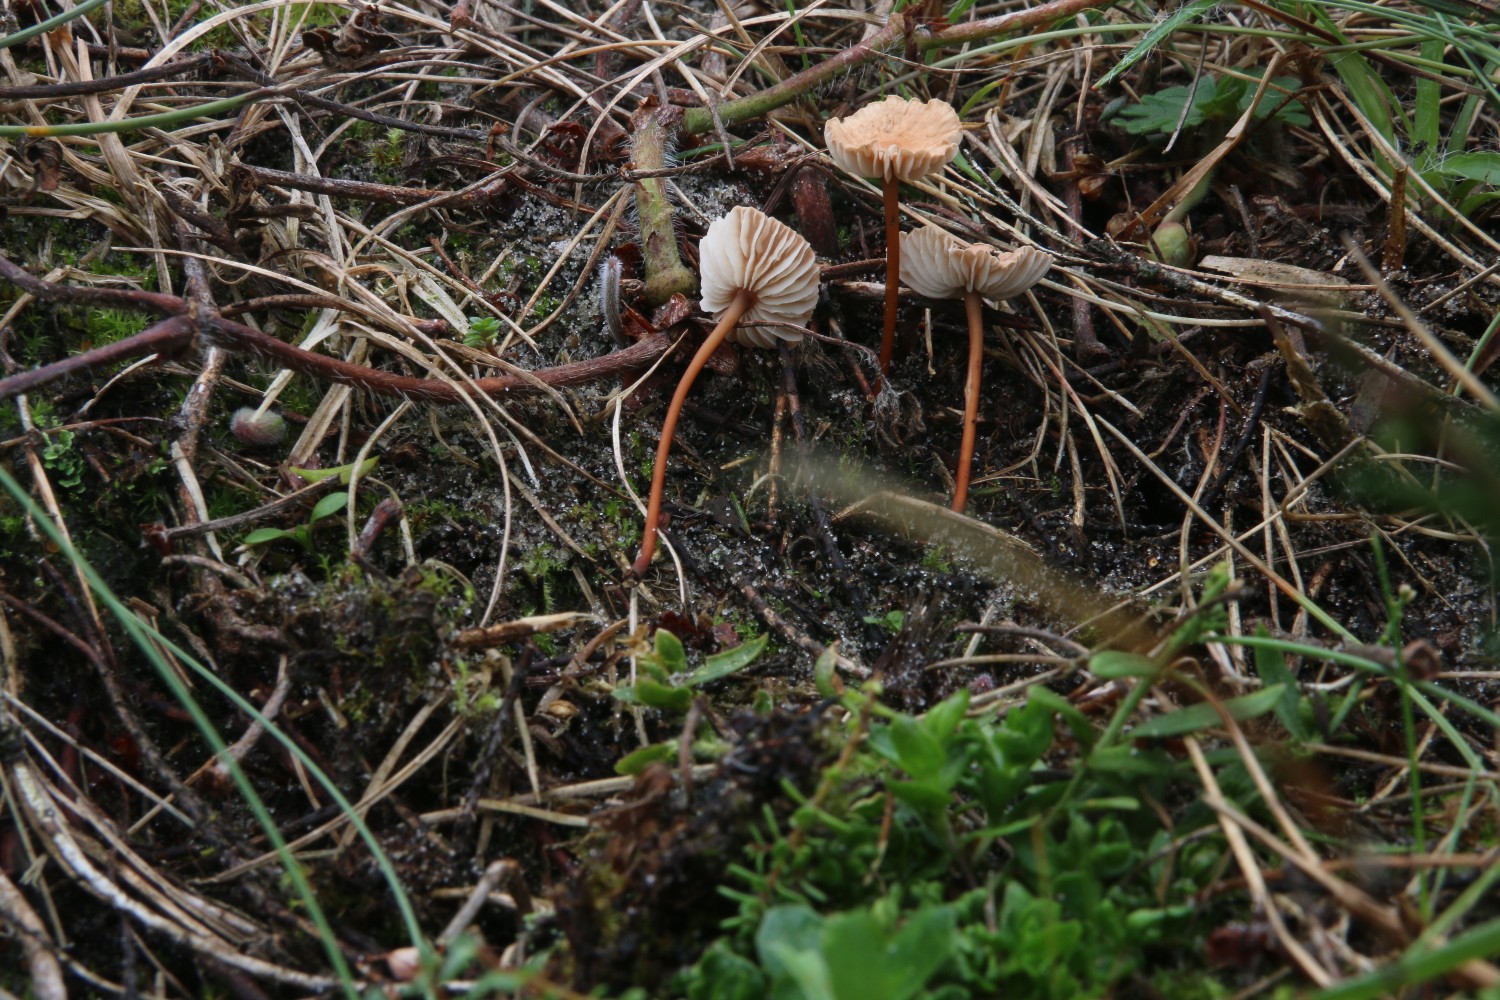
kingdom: Fungi
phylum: Basidiomycota
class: Agaricomycetes
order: Agaricales
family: Omphalotaceae
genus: Mycetinis
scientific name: Mycetinis scorodonius
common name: lille løghat
